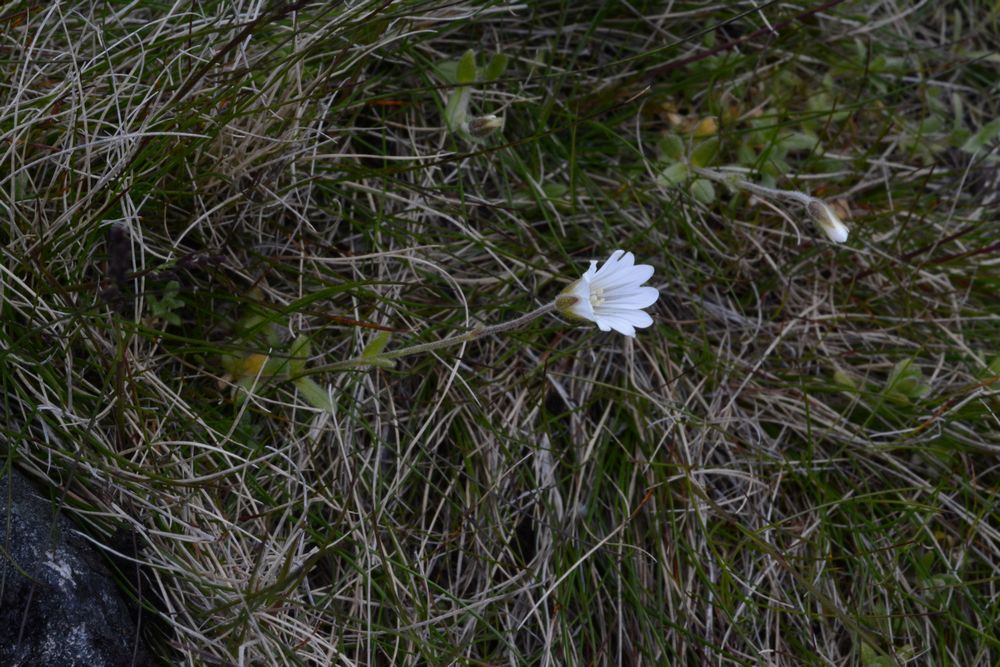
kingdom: Plantae
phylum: Tracheophyta
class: Magnoliopsida
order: Caryophyllales
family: Caryophyllaceae
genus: Cerastium
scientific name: Cerastium alpinum
